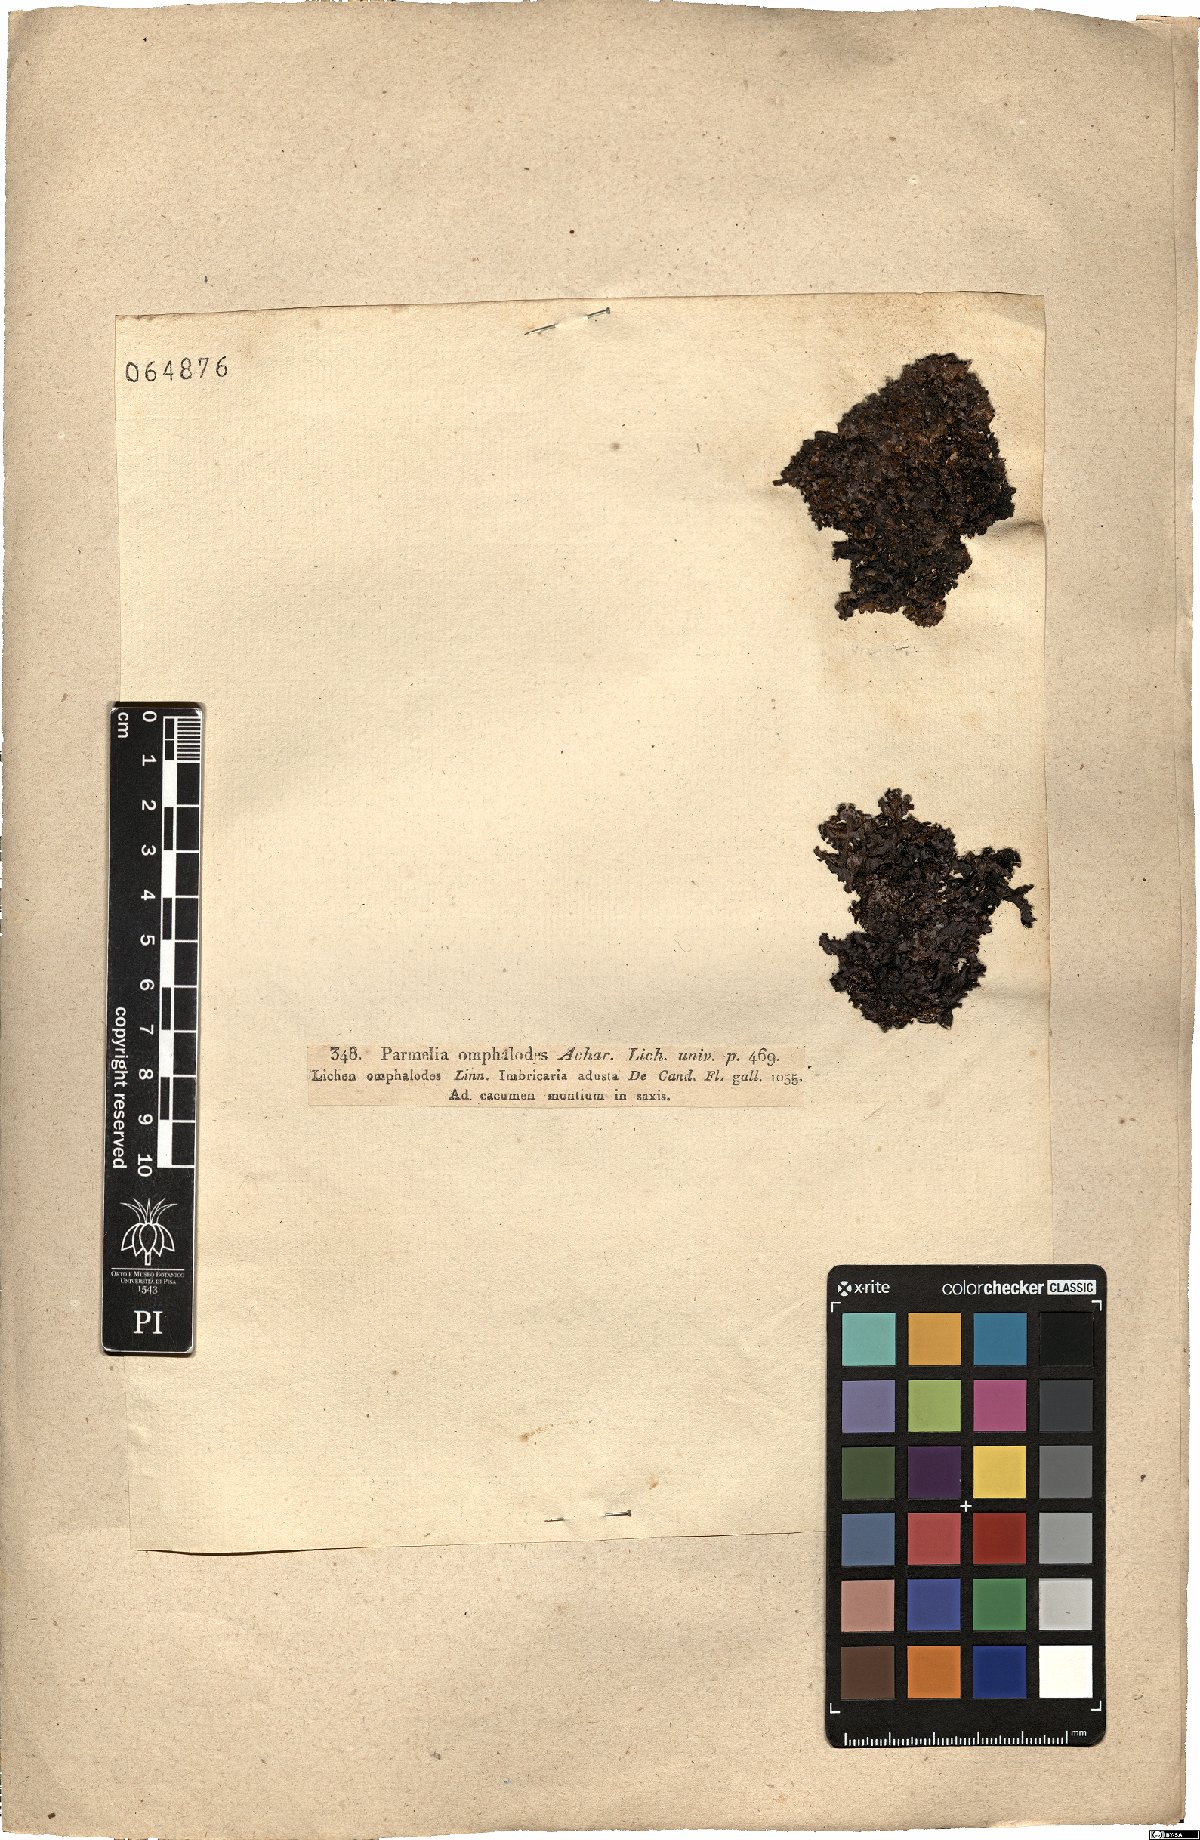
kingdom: Fungi
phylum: Ascomycota
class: Lecanoromycetes
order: Lecanorales
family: Parmeliaceae
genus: Parmelia
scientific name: Parmelia omphalodes
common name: Smoky crottle
